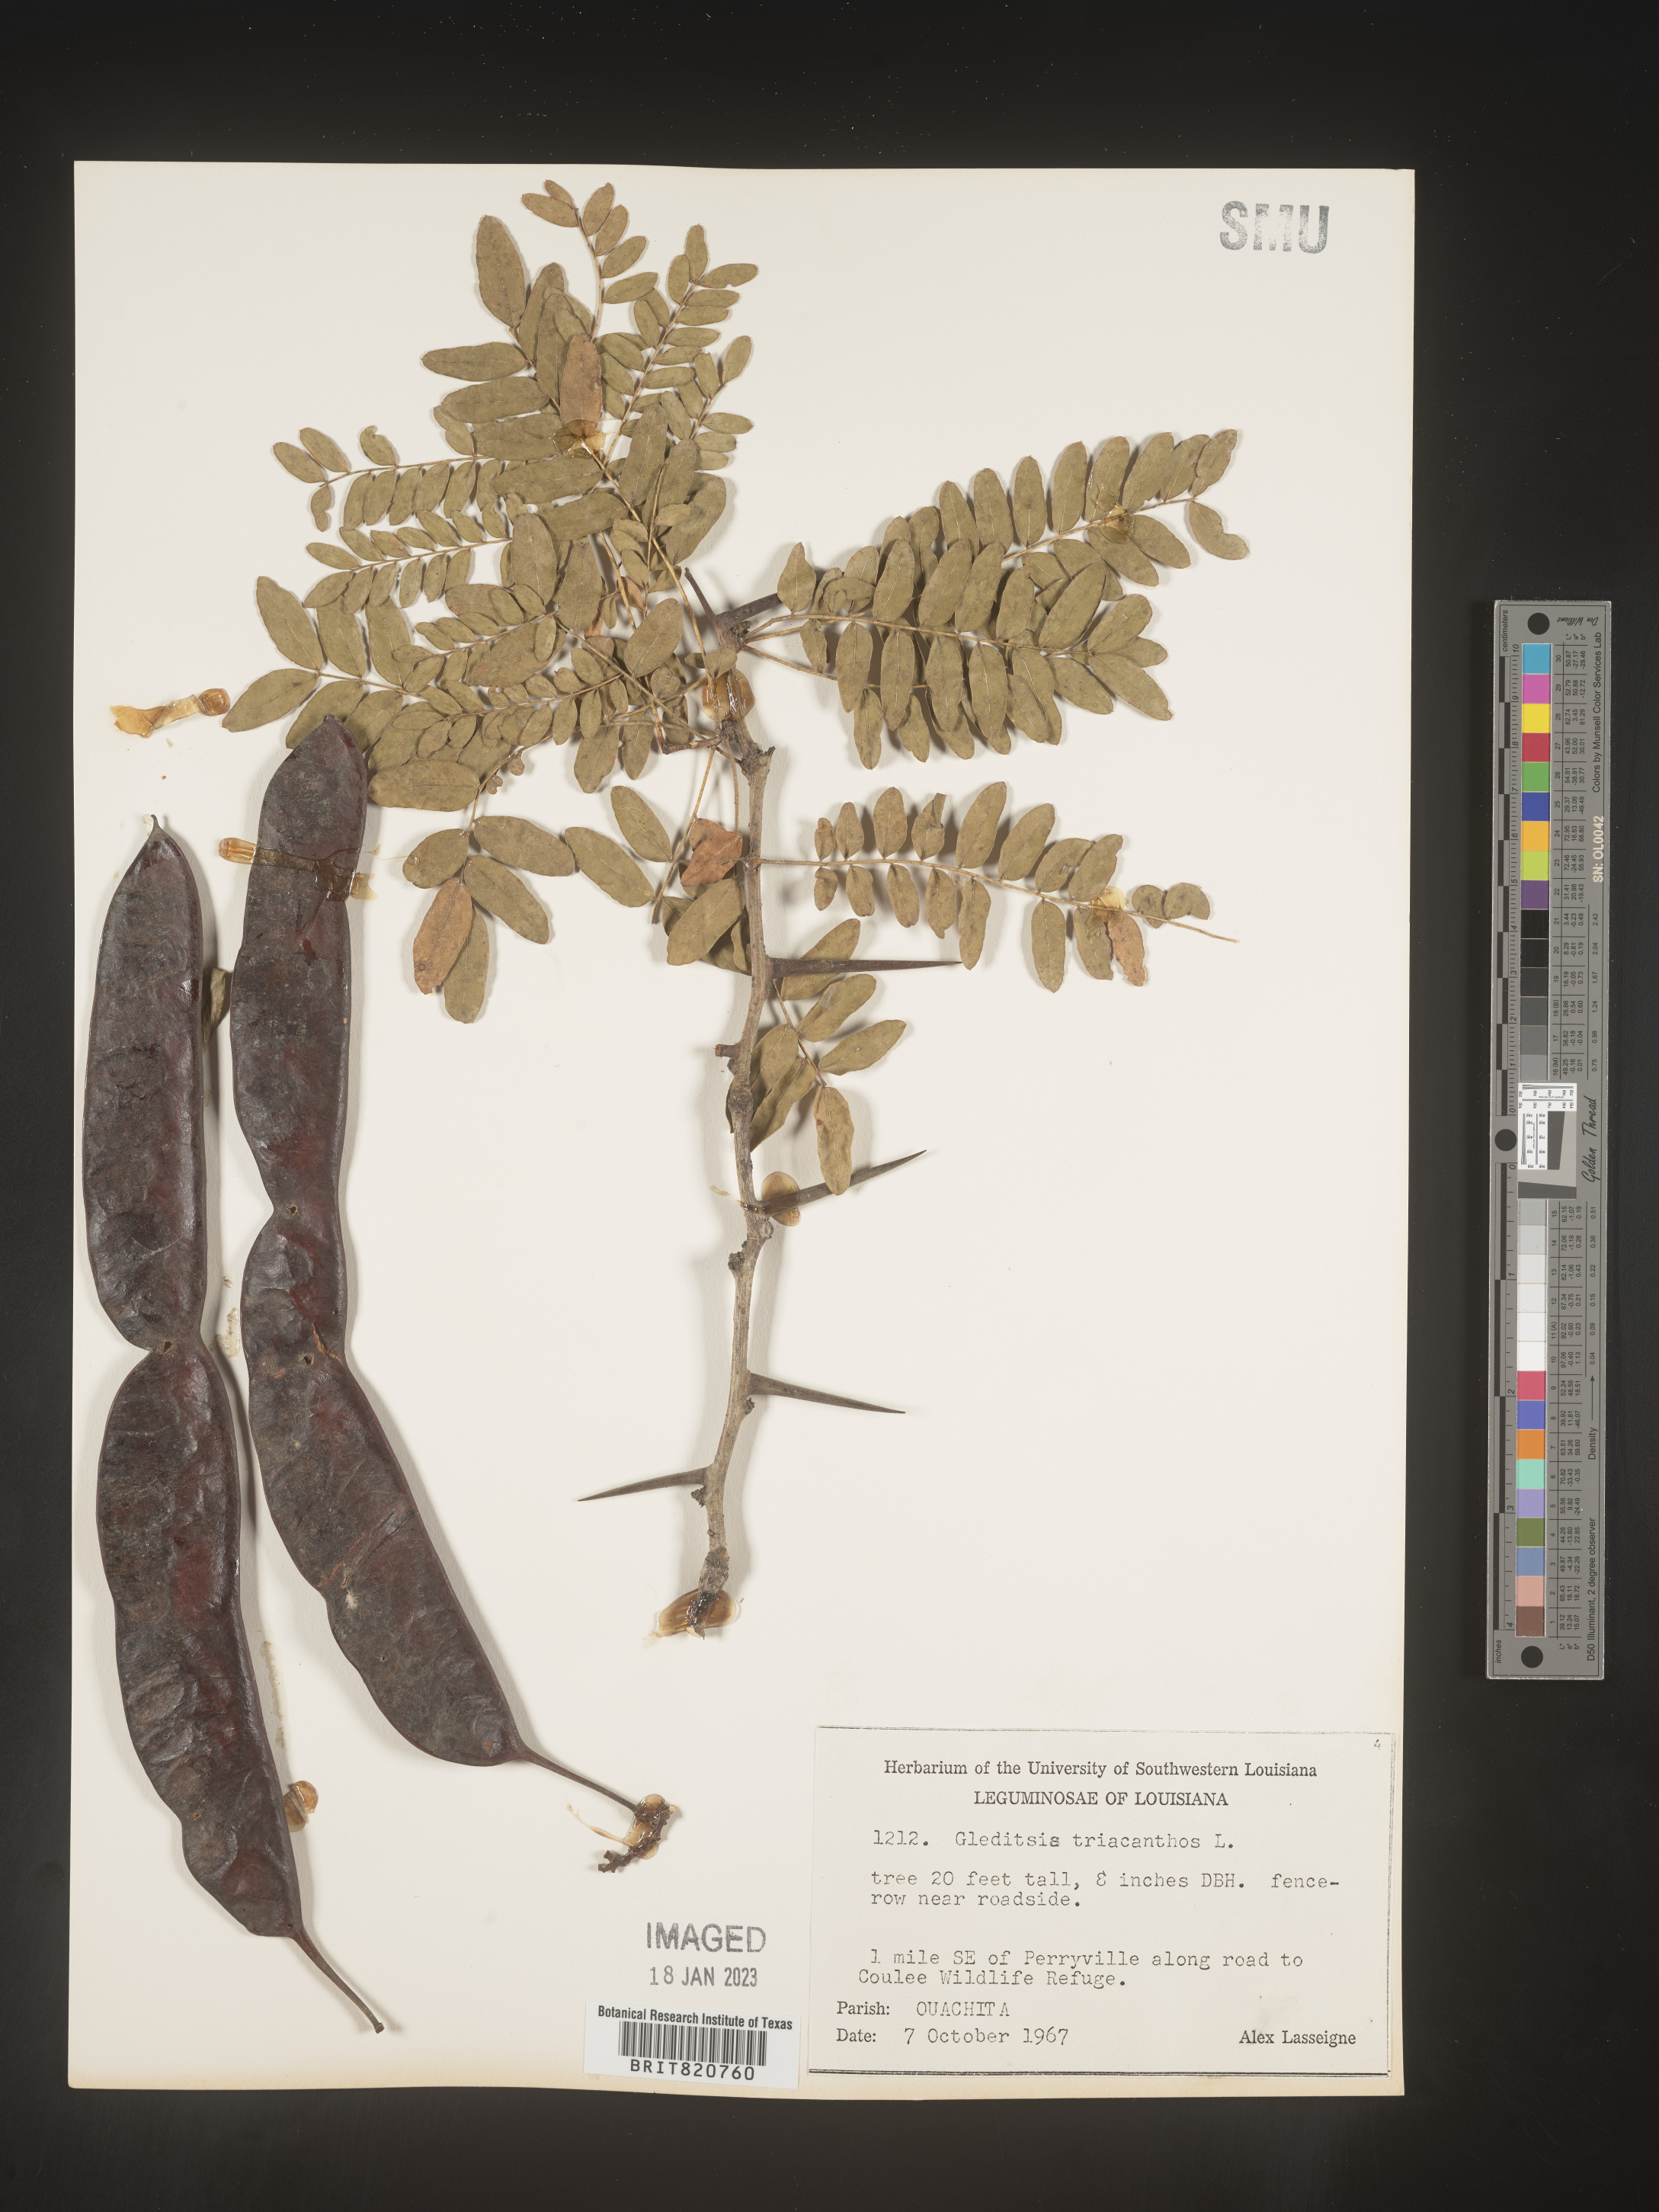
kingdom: Plantae
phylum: Tracheophyta
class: Magnoliopsida
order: Fabales
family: Fabaceae
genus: Gleditsia
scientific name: Gleditsia triacanthos
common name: Common honeylocust
